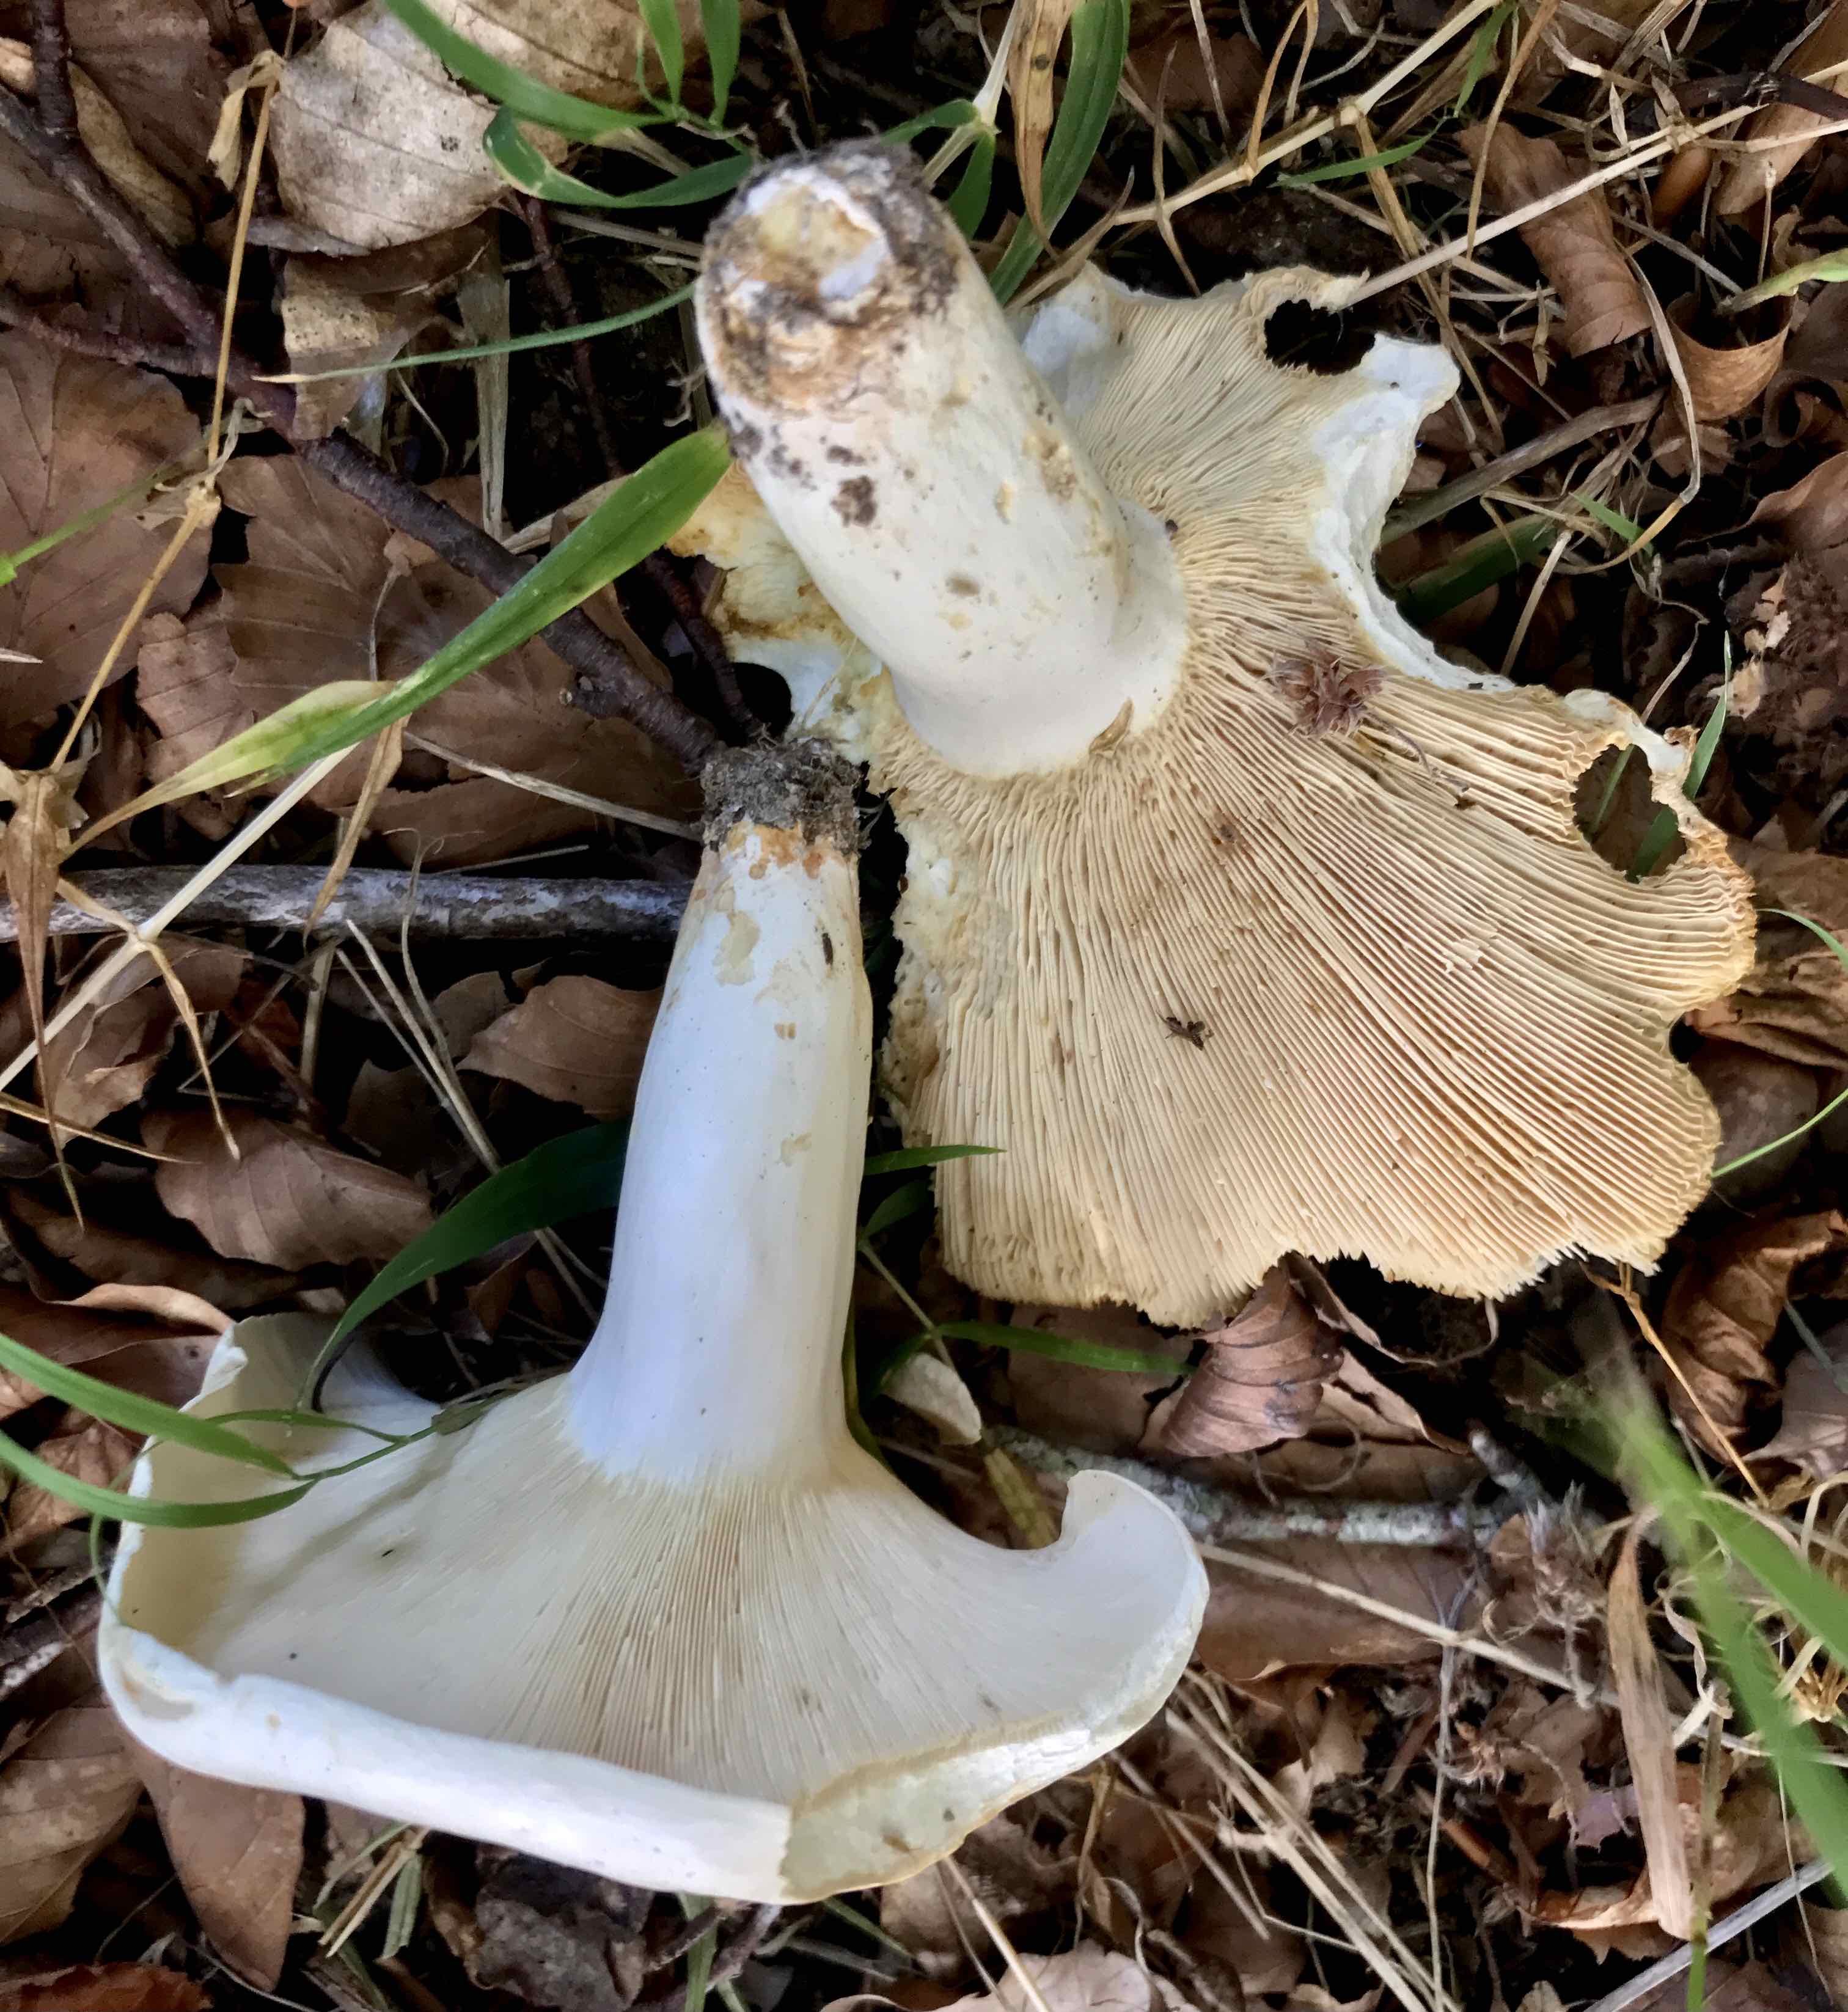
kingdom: Fungi
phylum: Basidiomycota
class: Agaricomycetes
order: Russulales
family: Russulaceae
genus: Lactifluus
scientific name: Lactifluus piperatus
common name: peber-mælkehat
